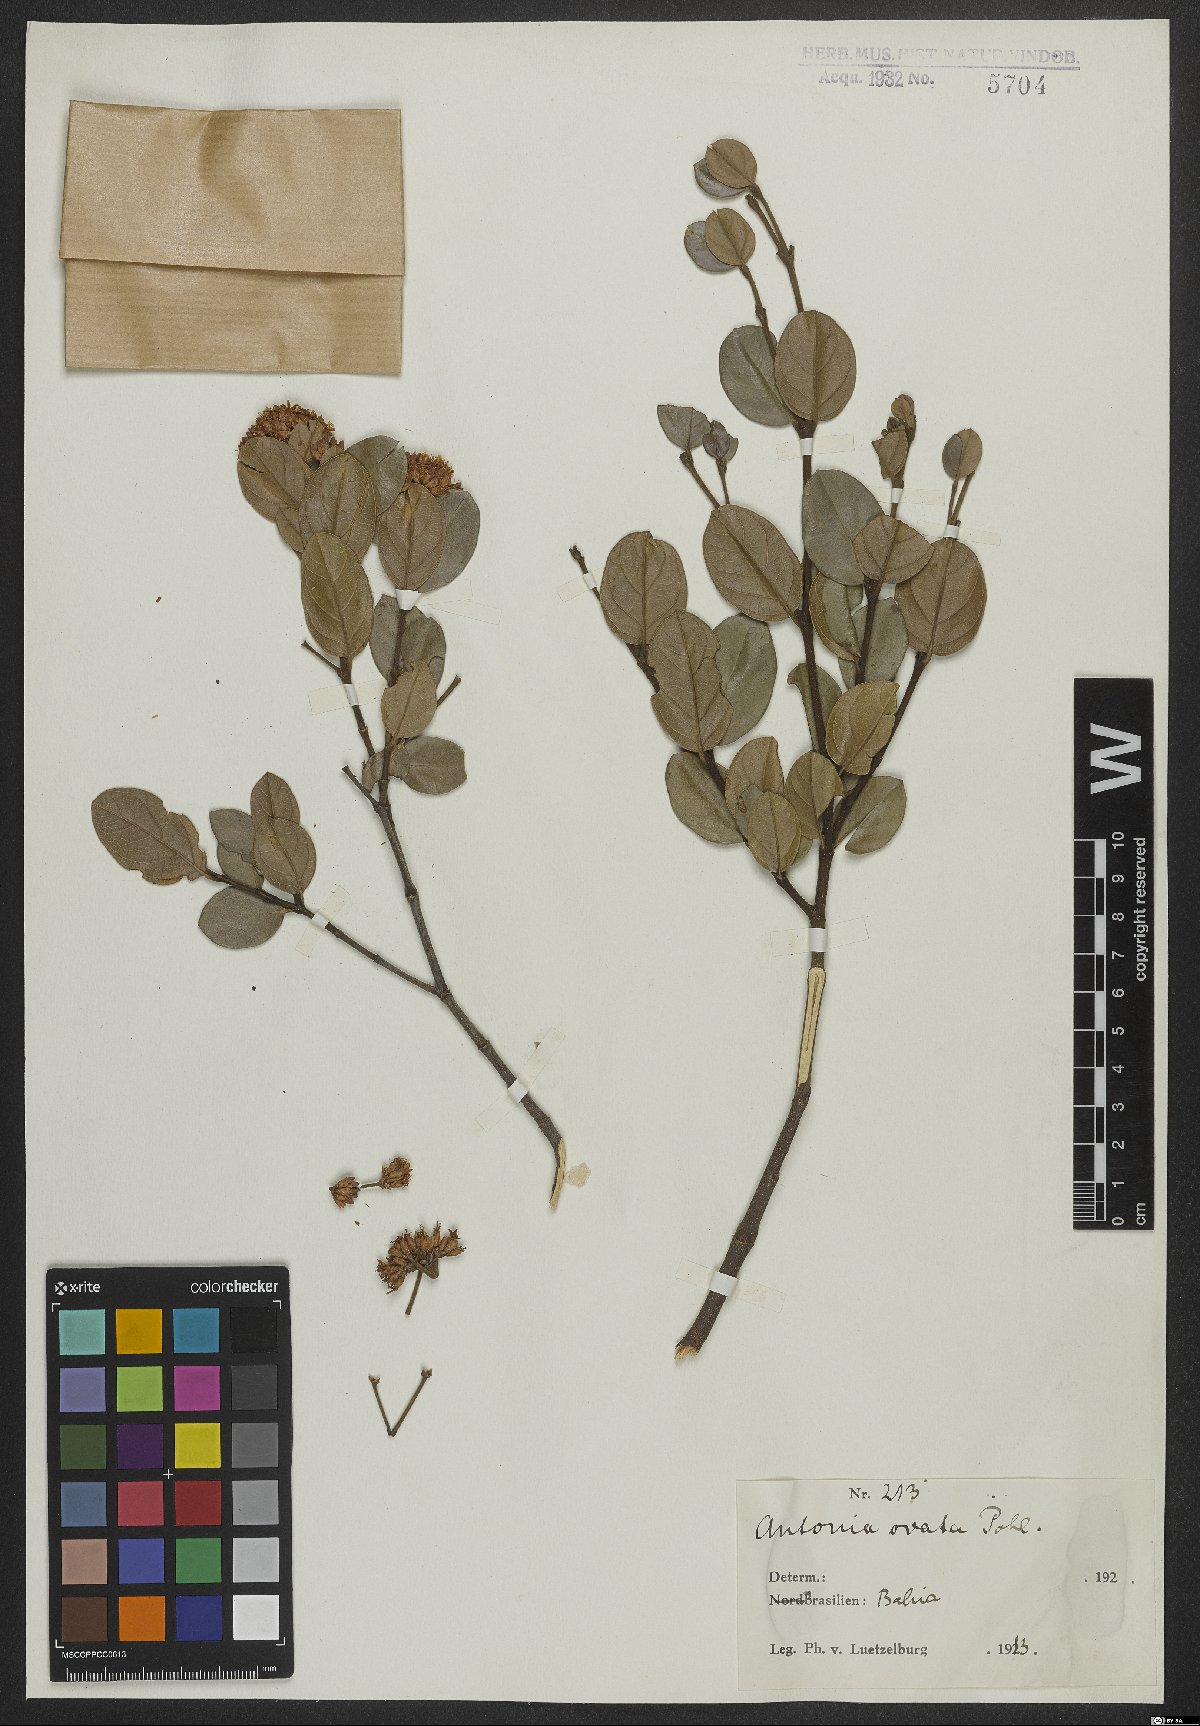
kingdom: Plantae
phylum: Tracheophyta
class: Magnoliopsida
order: Gentianales
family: Loganiaceae
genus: Antonia
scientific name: Antonia ovata
